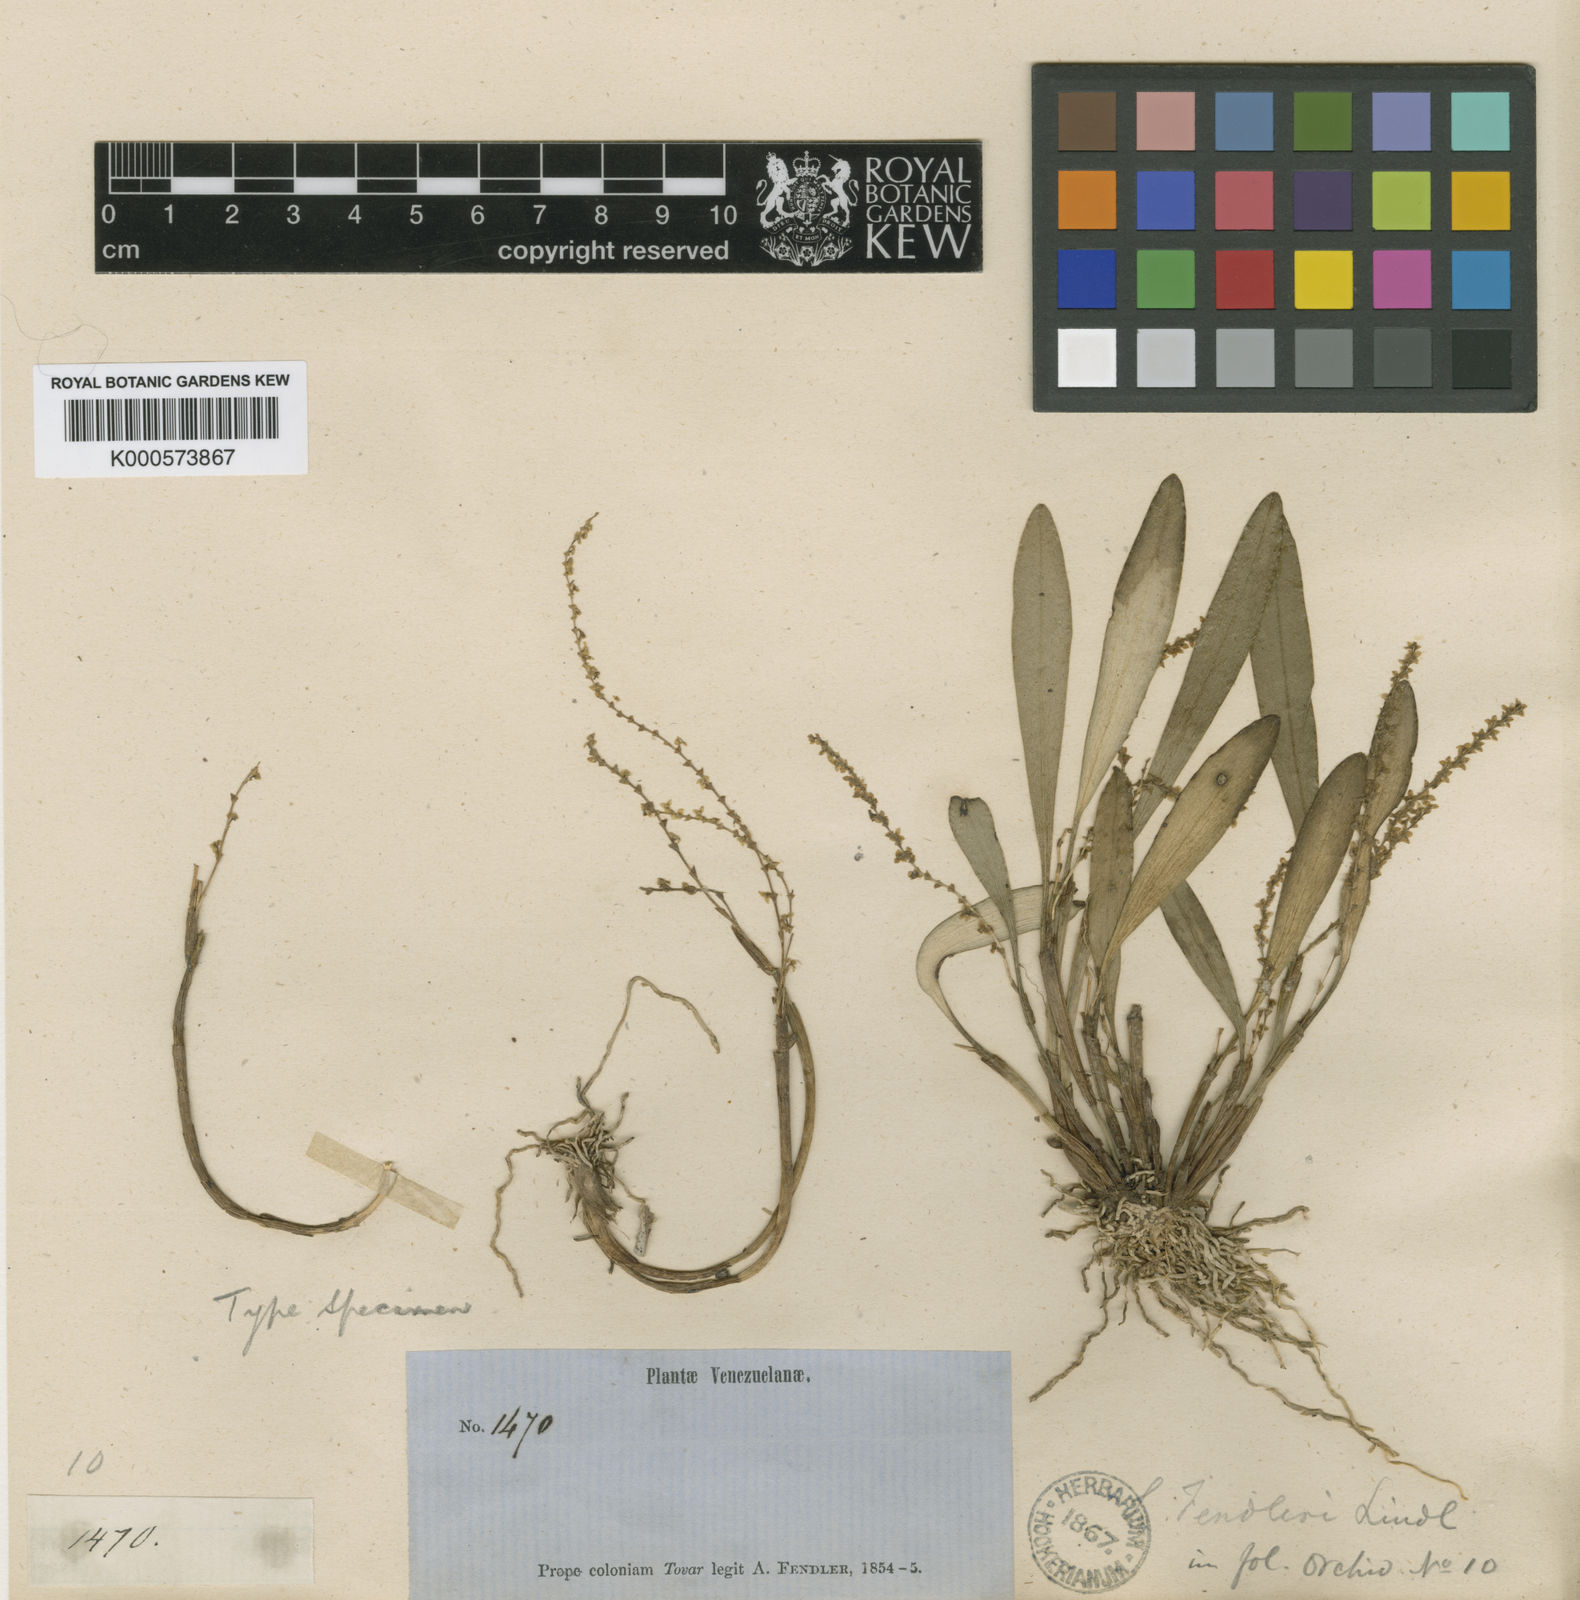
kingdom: Plantae
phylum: Tracheophyta
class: Liliopsida
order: Asparagales
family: Orchidaceae
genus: Stelis
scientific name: Stelis fendleri
